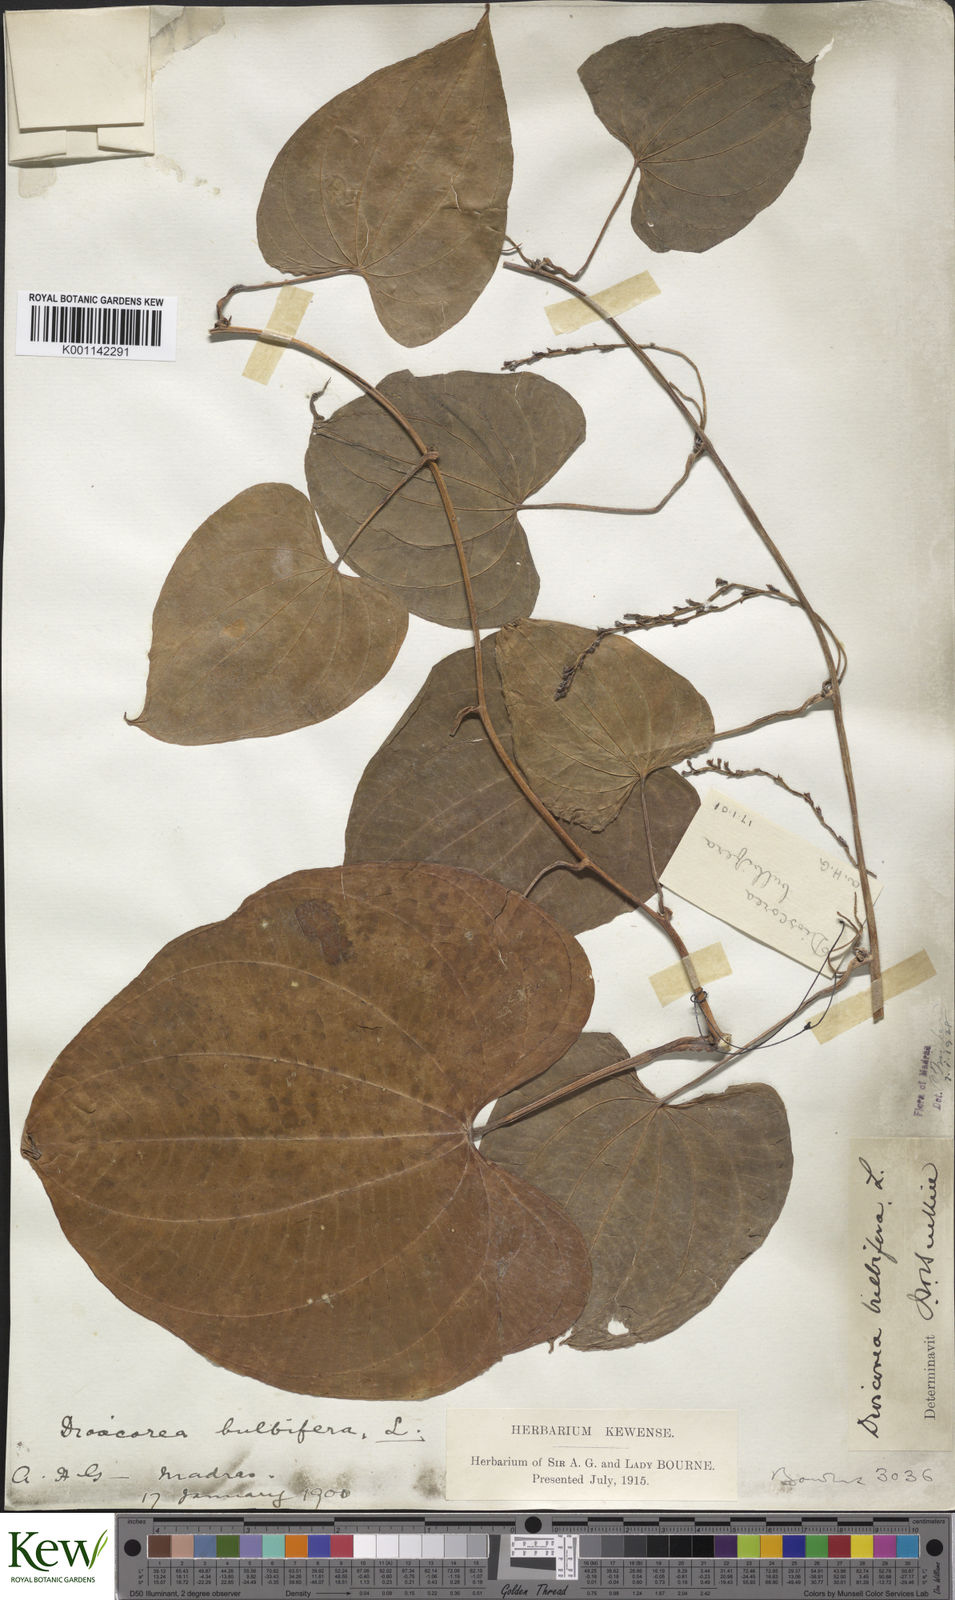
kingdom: Plantae
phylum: Tracheophyta
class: Liliopsida
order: Dioscoreales
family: Dioscoreaceae
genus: Dioscorea
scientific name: Dioscorea bulbifera
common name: Air yam
